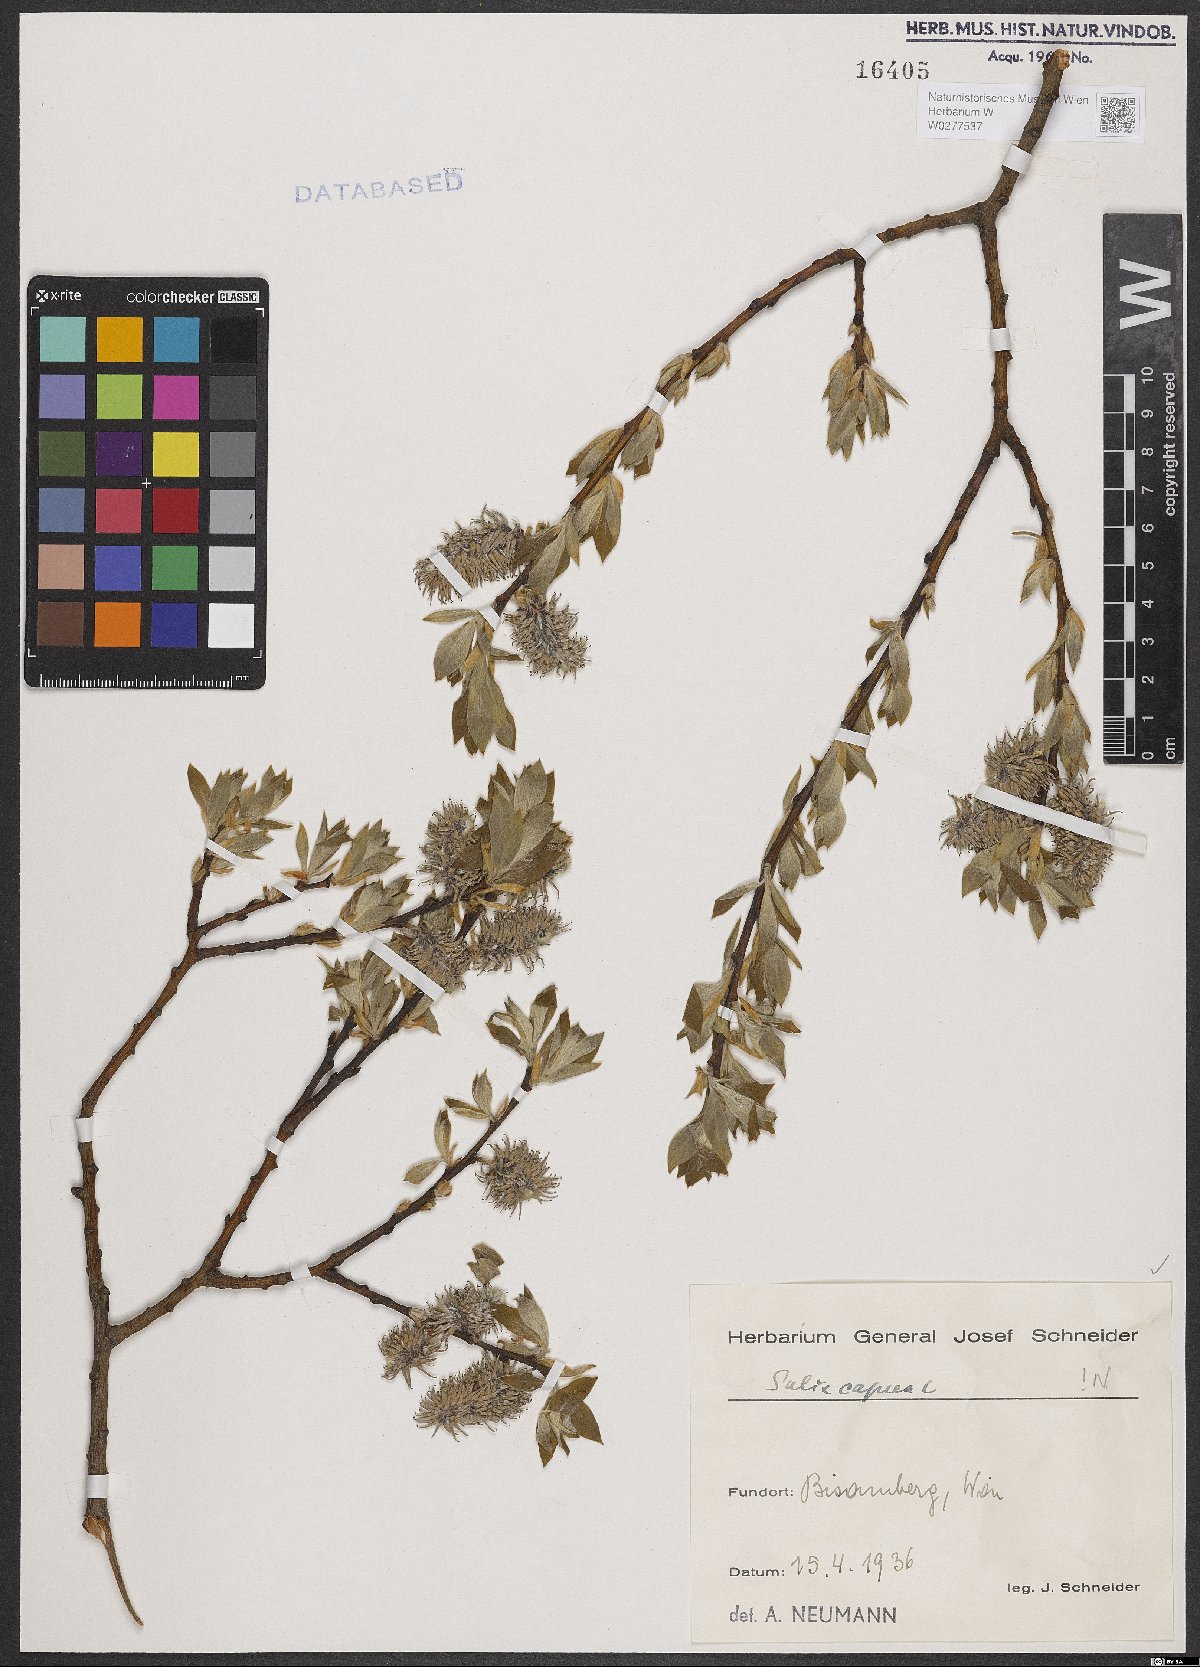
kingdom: Plantae
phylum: Tracheophyta
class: Magnoliopsida
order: Malpighiales
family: Salicaceae
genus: Salix
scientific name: Salix caprea
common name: Goat willow
